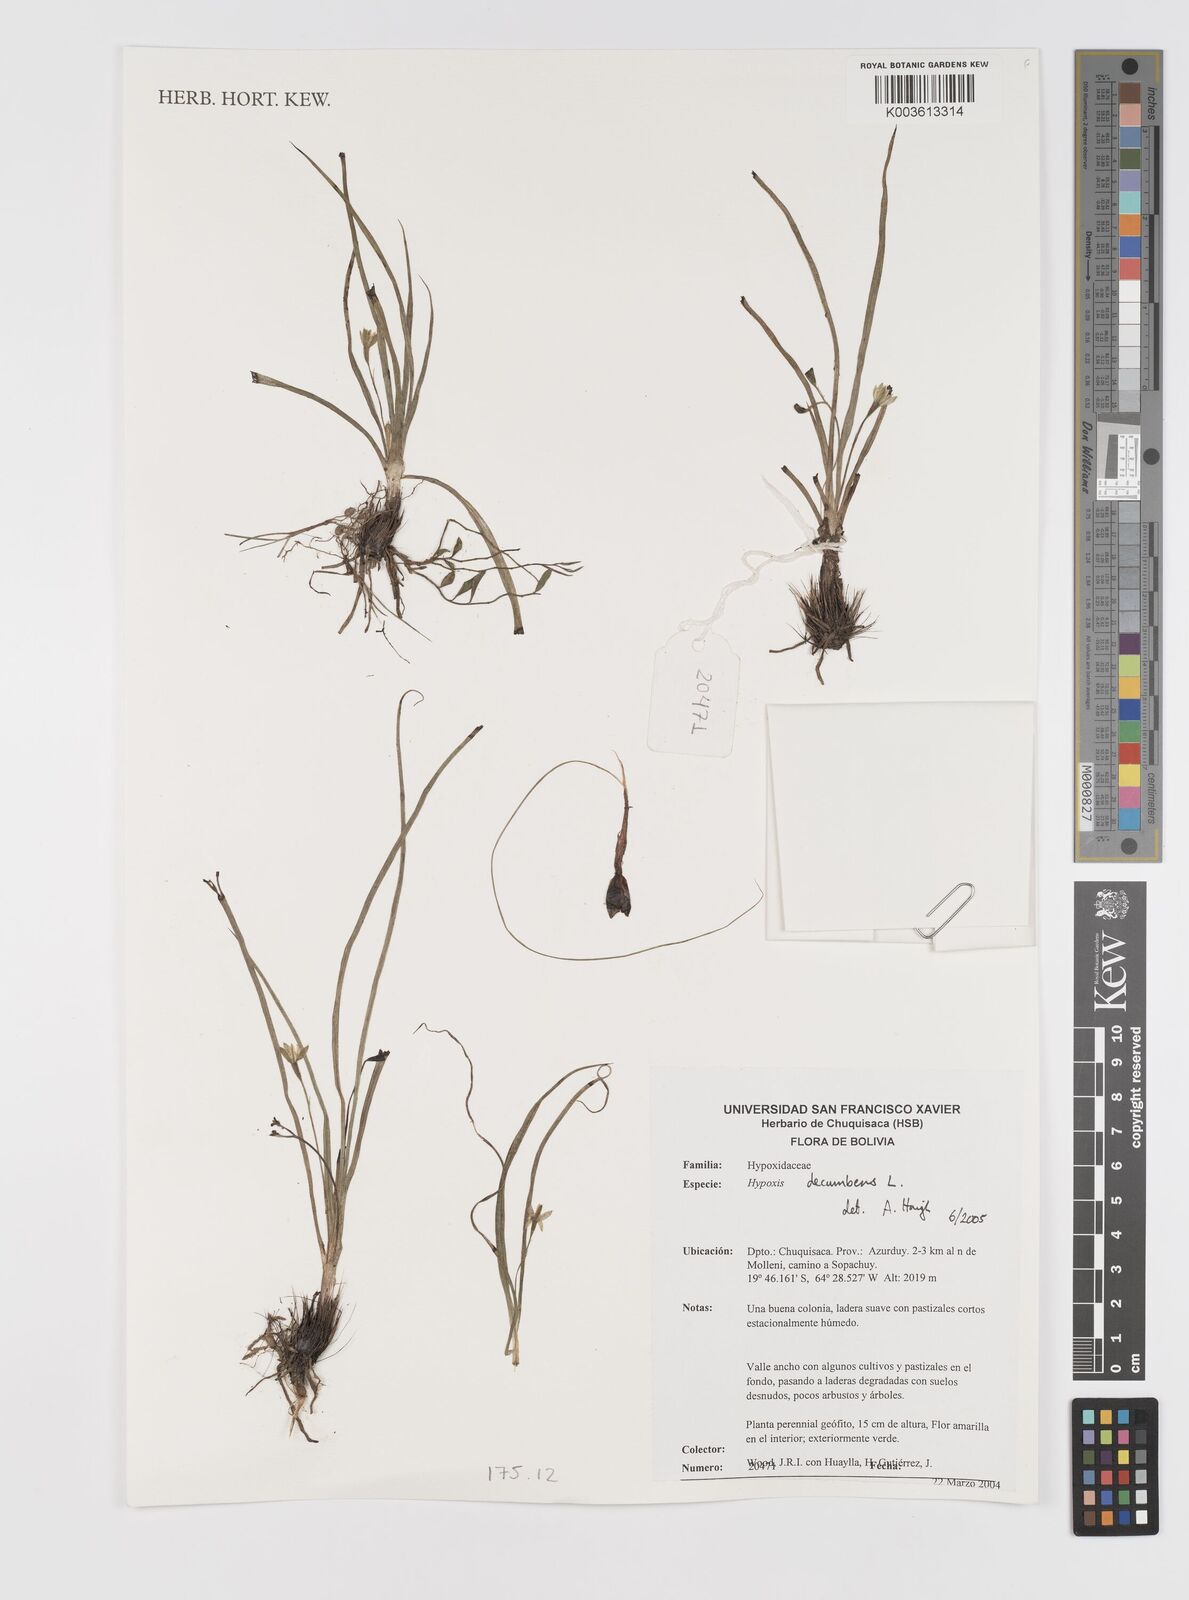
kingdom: Plantae
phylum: Tracheophyta
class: Liliopsida
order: Asparagales
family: Hypoxidaceae
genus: Hypoxis
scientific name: Hypoxis decumbens
